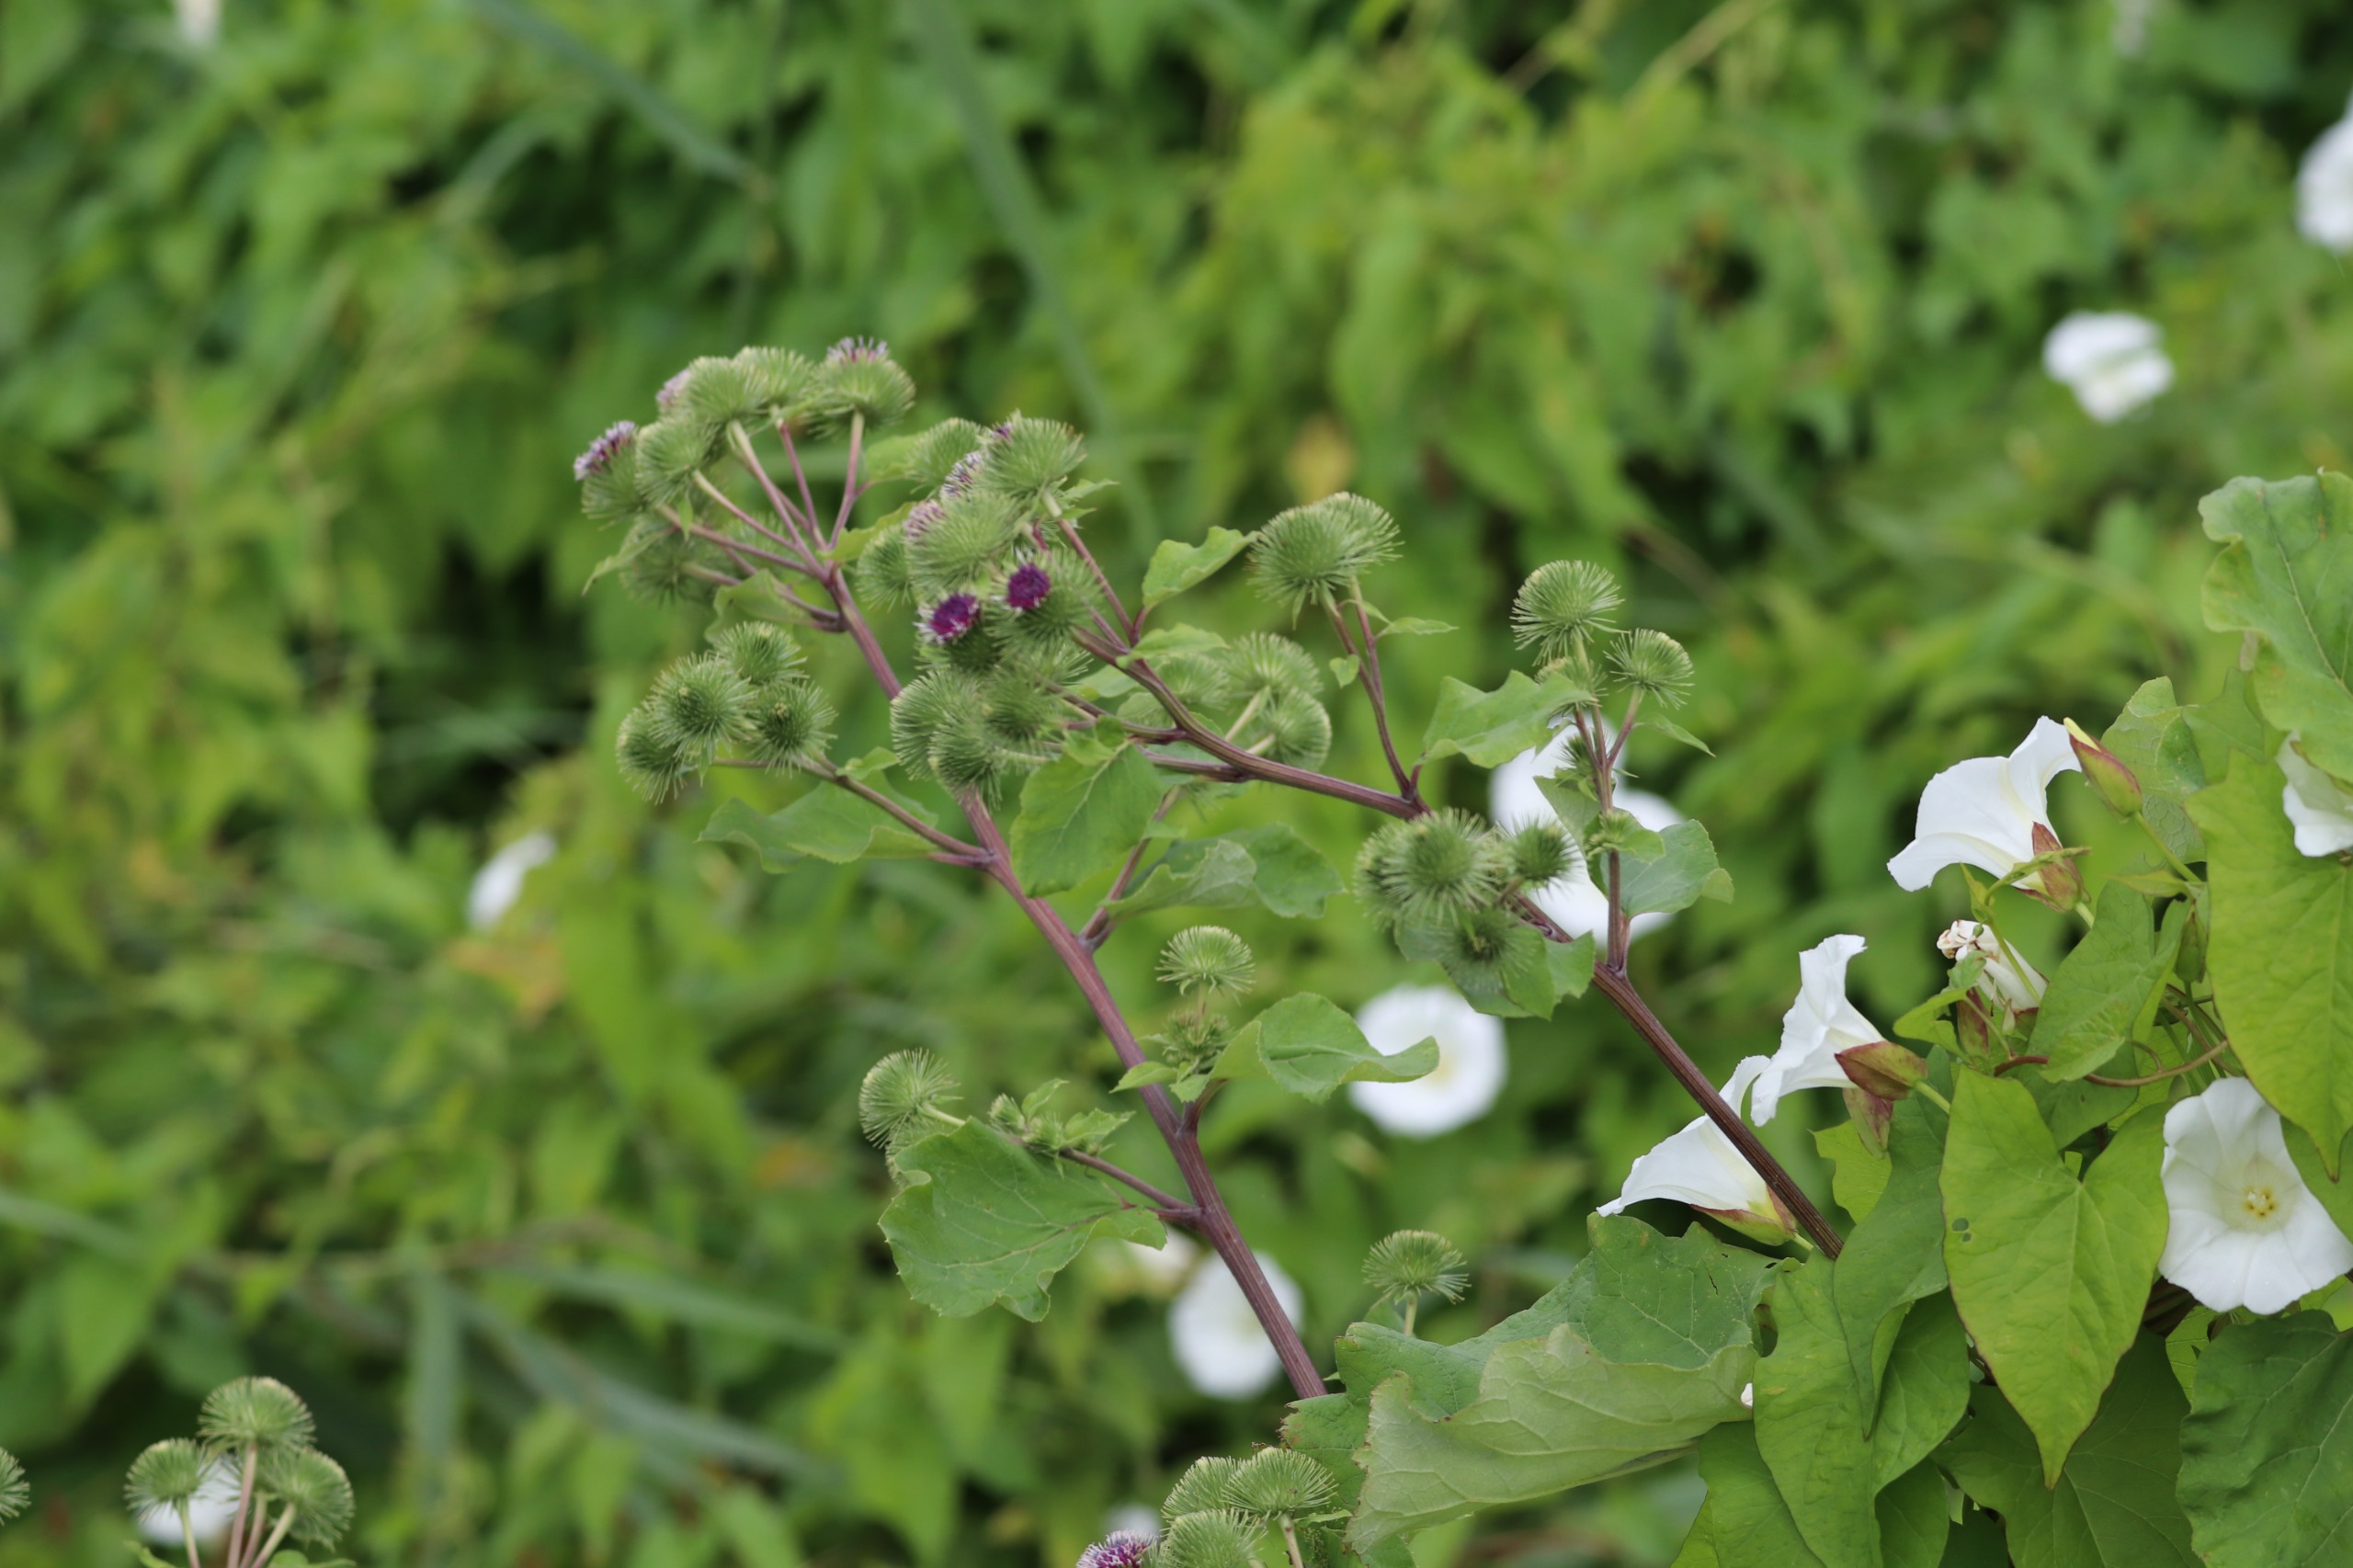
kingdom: Plantae
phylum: Tracheophyta
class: Magnoliopsida
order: Asterales
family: Asteraceae
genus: Arctium
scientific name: Arctium lappa
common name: Glat burre
